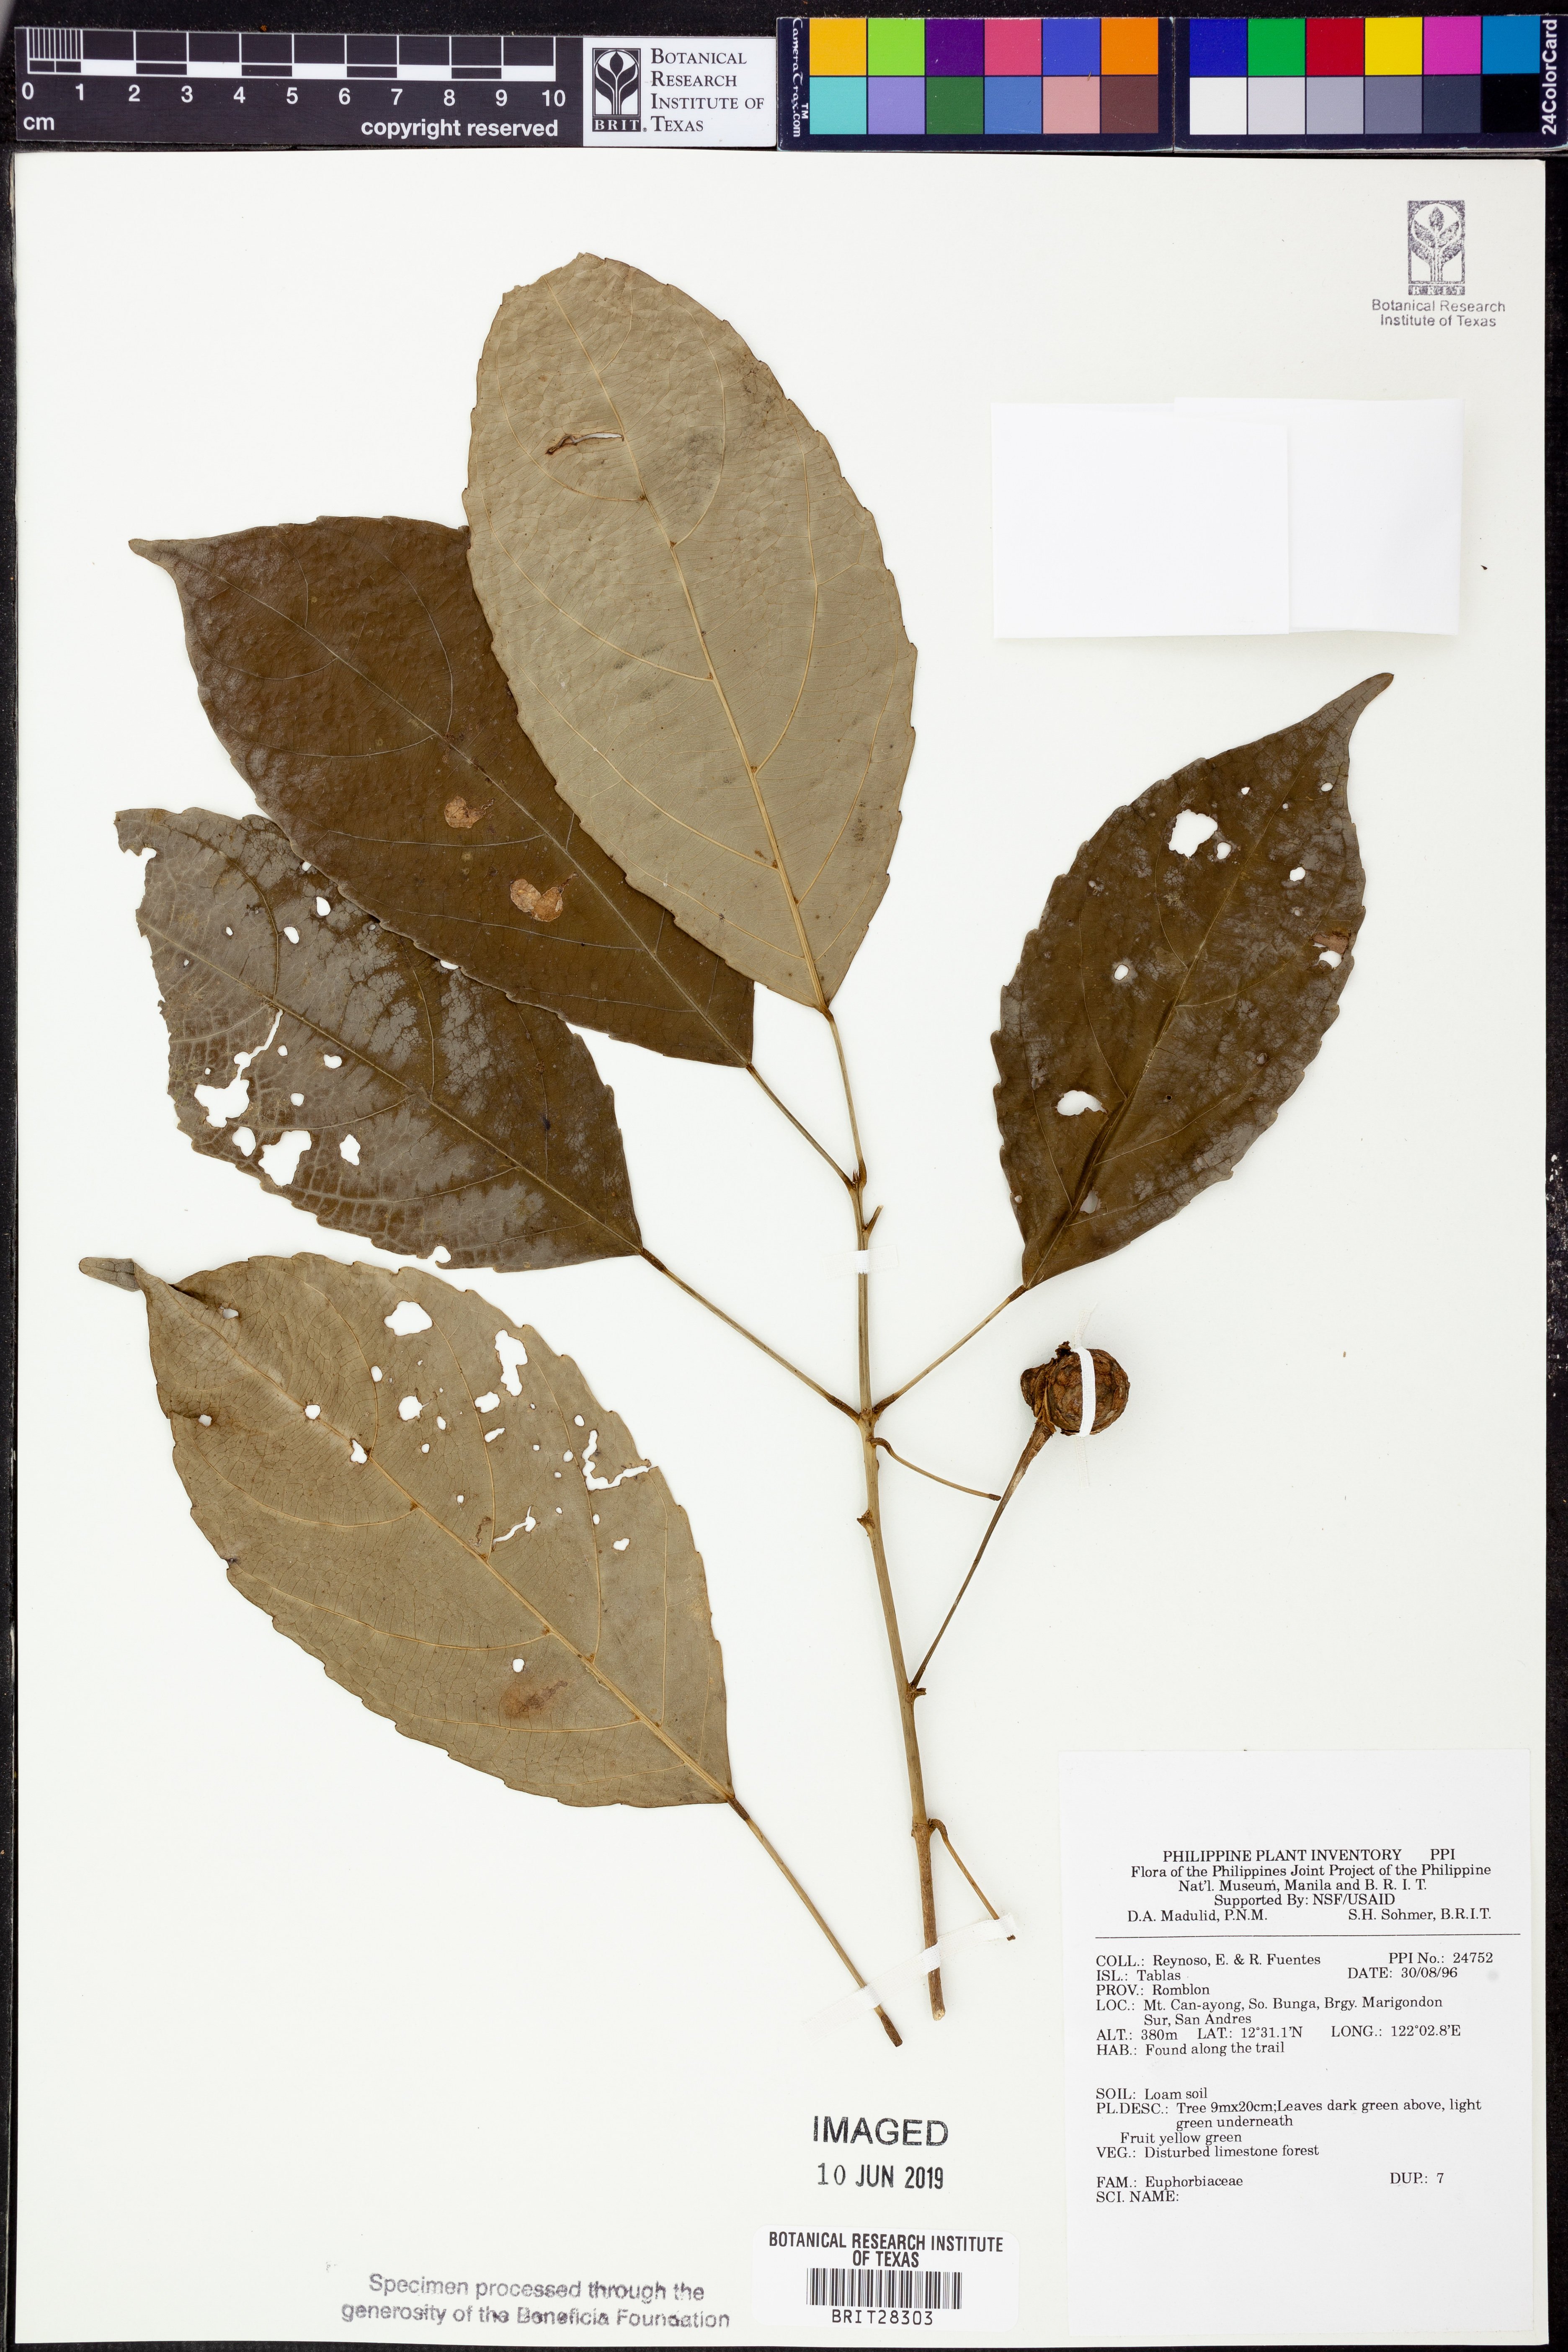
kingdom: Plantae
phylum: Tracheophyta
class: Magnoliopsida
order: Malpighiales
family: Euphorbiaceae
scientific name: Euphorbiaceae
